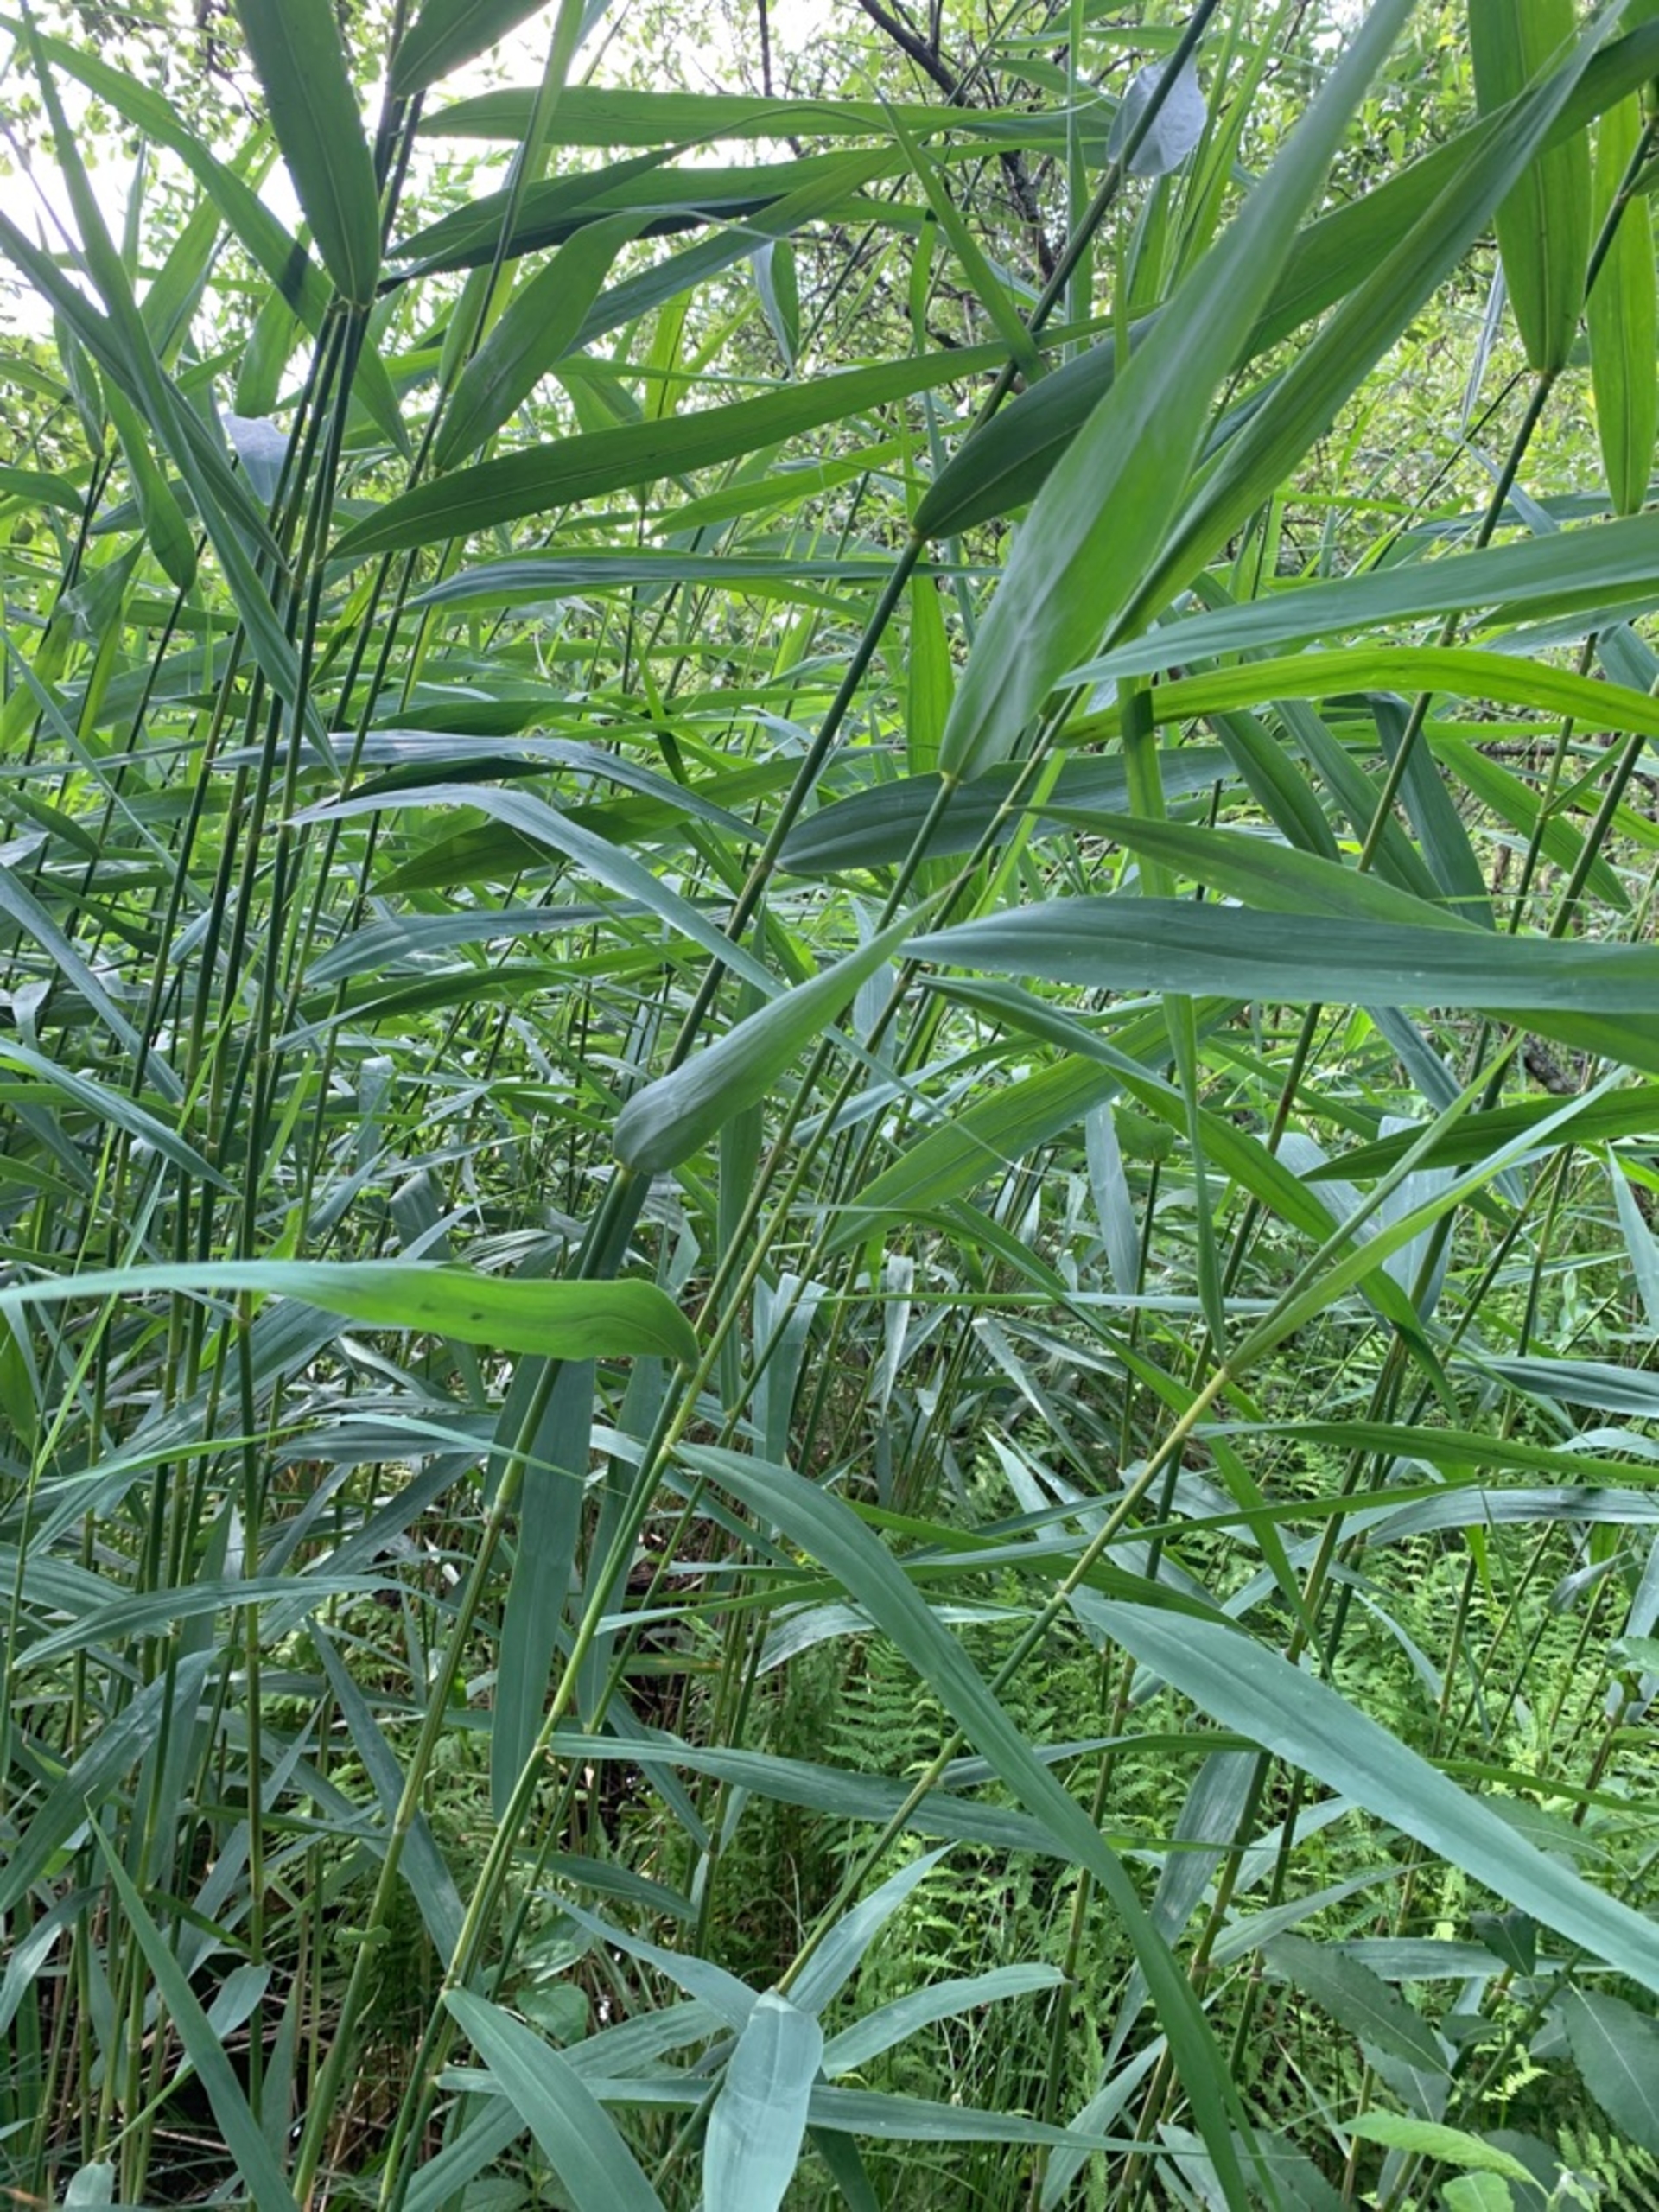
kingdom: Plantae
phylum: Tracheophyta
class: Liliopsida
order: Poales
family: Poaceae
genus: Phragmites
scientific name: Phragmites australis
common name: Tagrør
